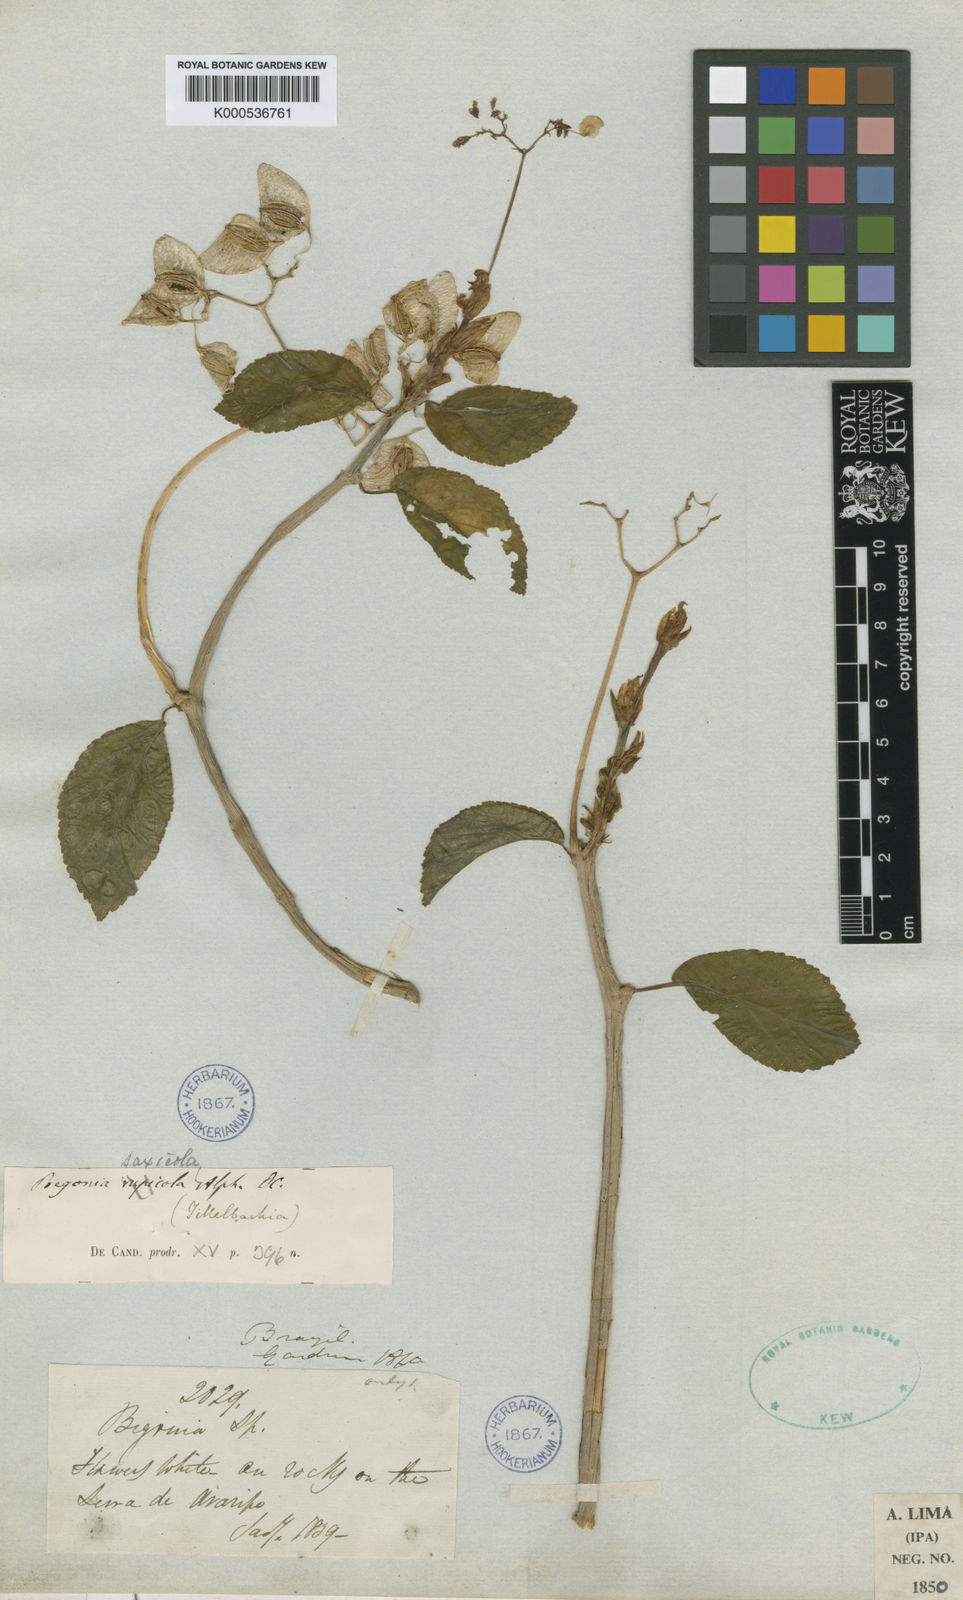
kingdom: Plantae
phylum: Tracheophyta
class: Magnoliopsida
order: Cucurbitales
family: Begoniaceae
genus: Begonia
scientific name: Begonia saxicola
